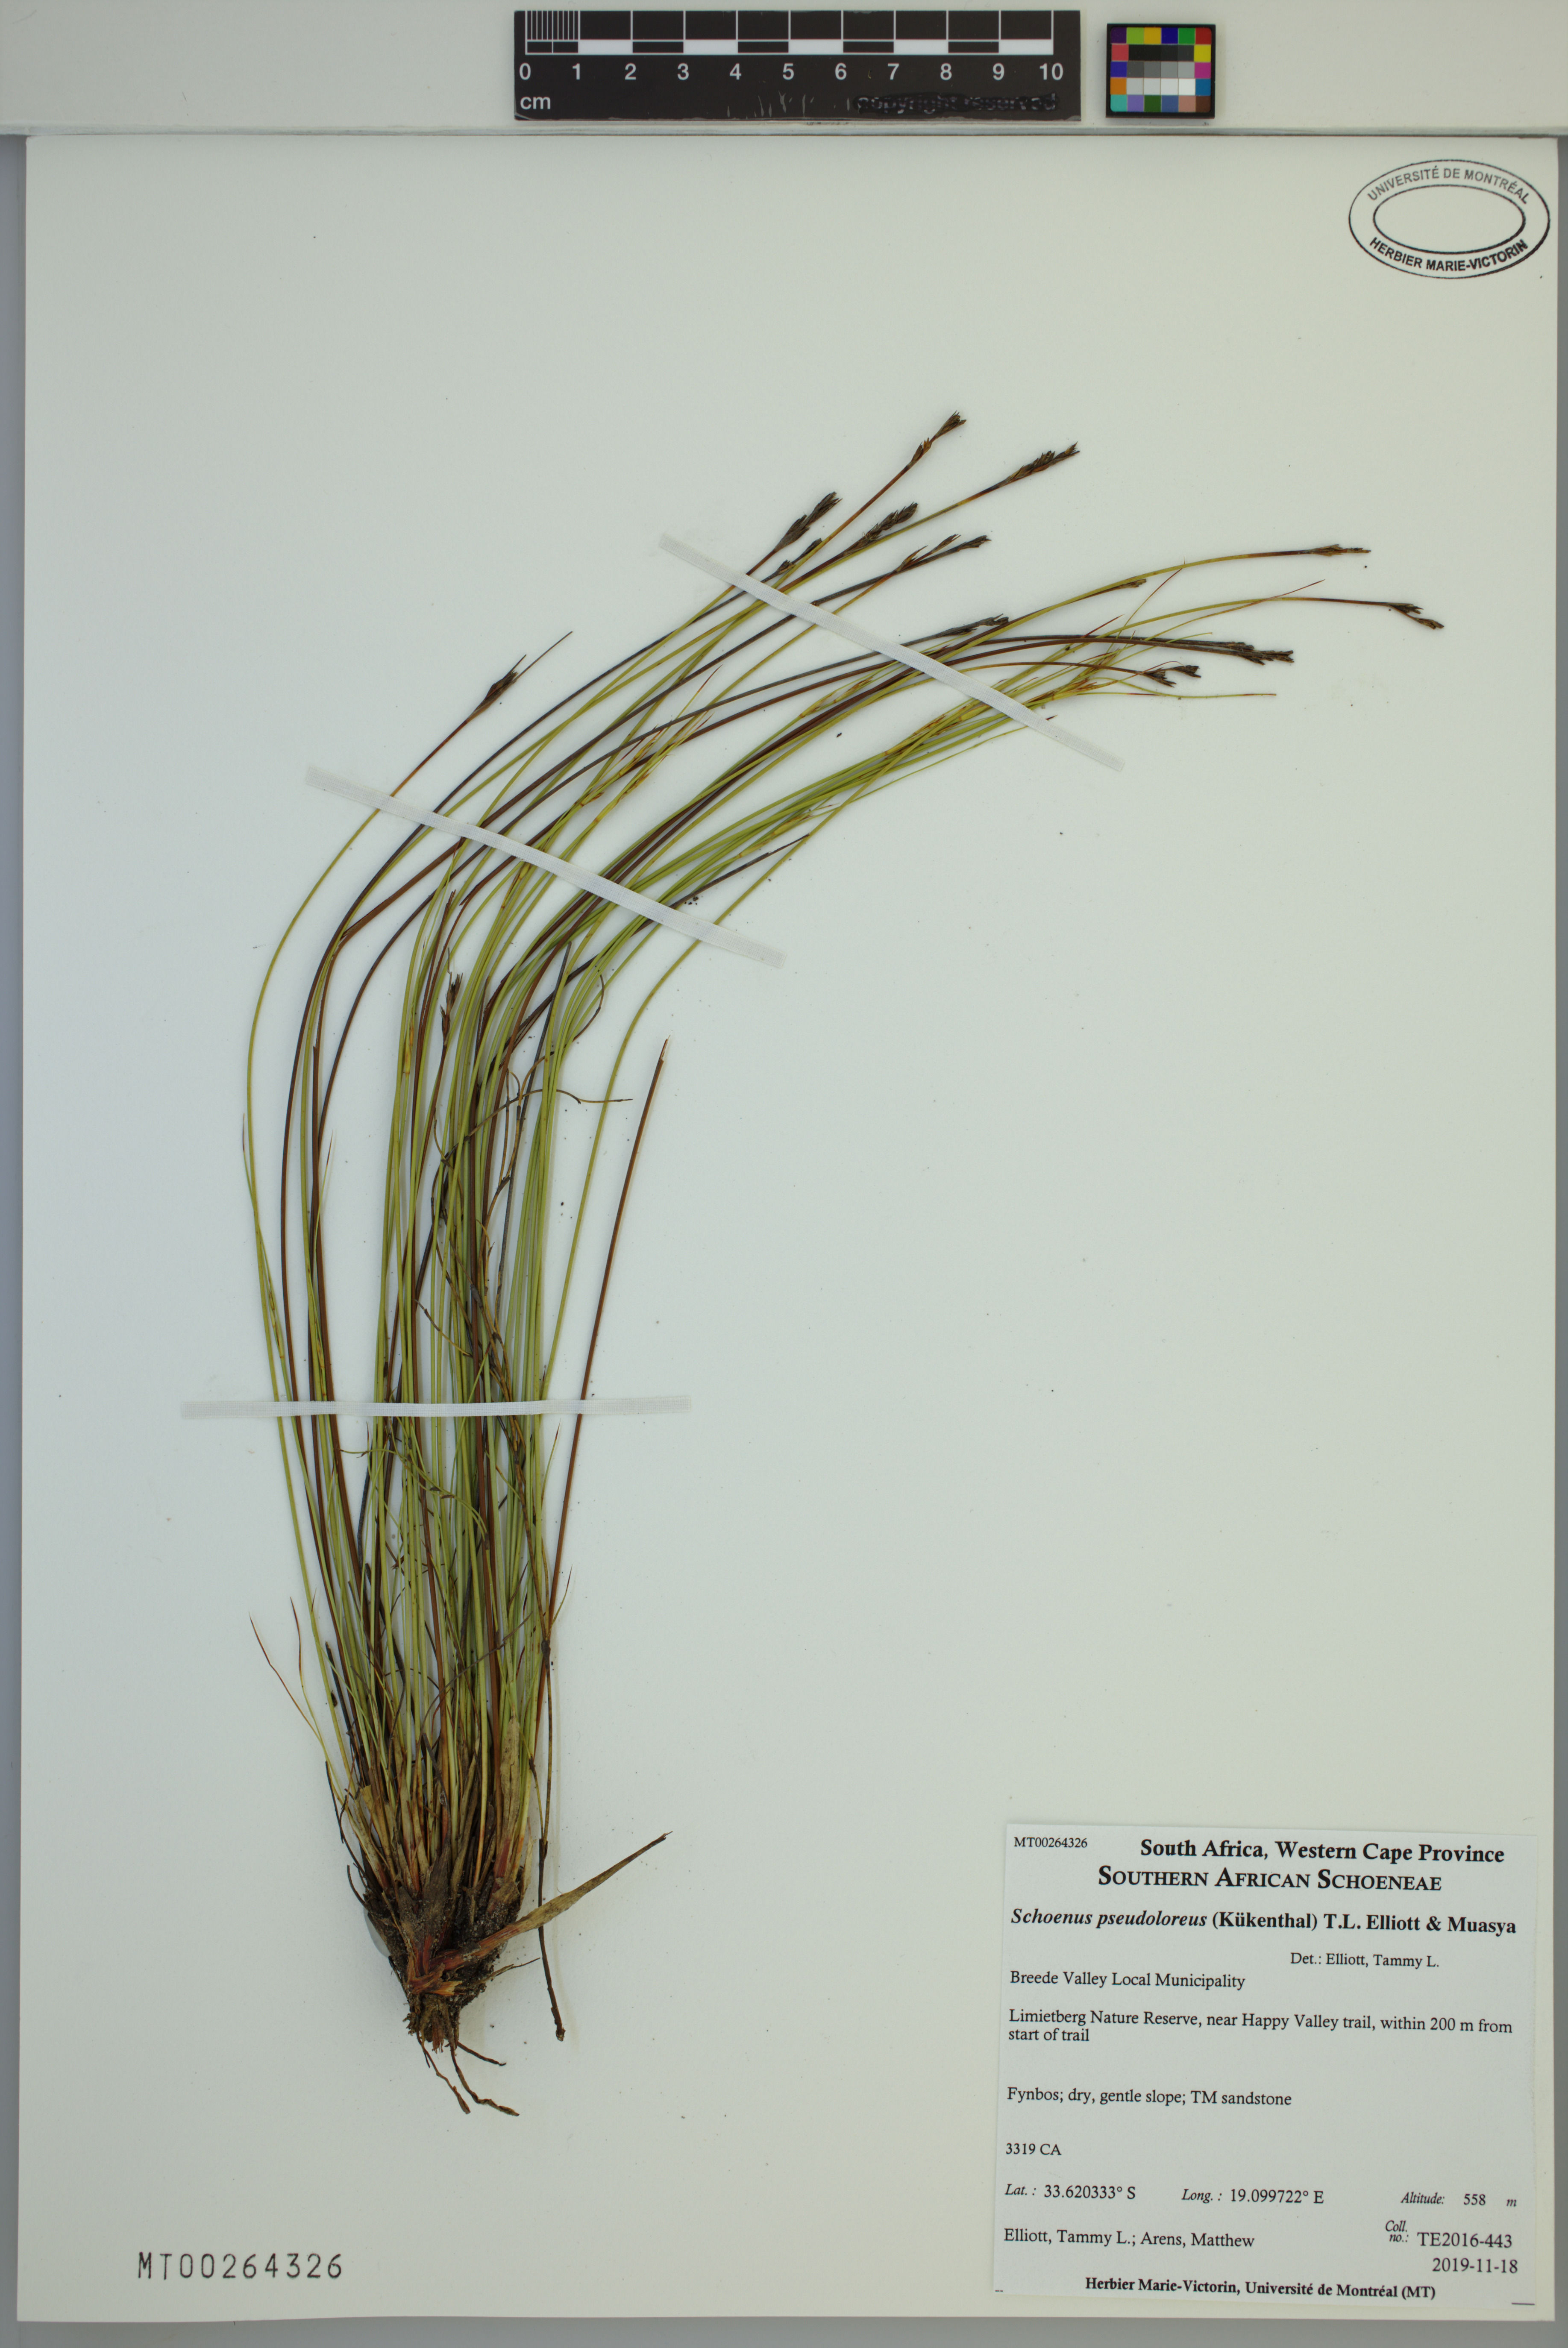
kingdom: Plantae
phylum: Tracheophyta
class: Liliopsida
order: Poales
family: Cyperaceae
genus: Schoenus
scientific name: Schoenus pseudoloreus
